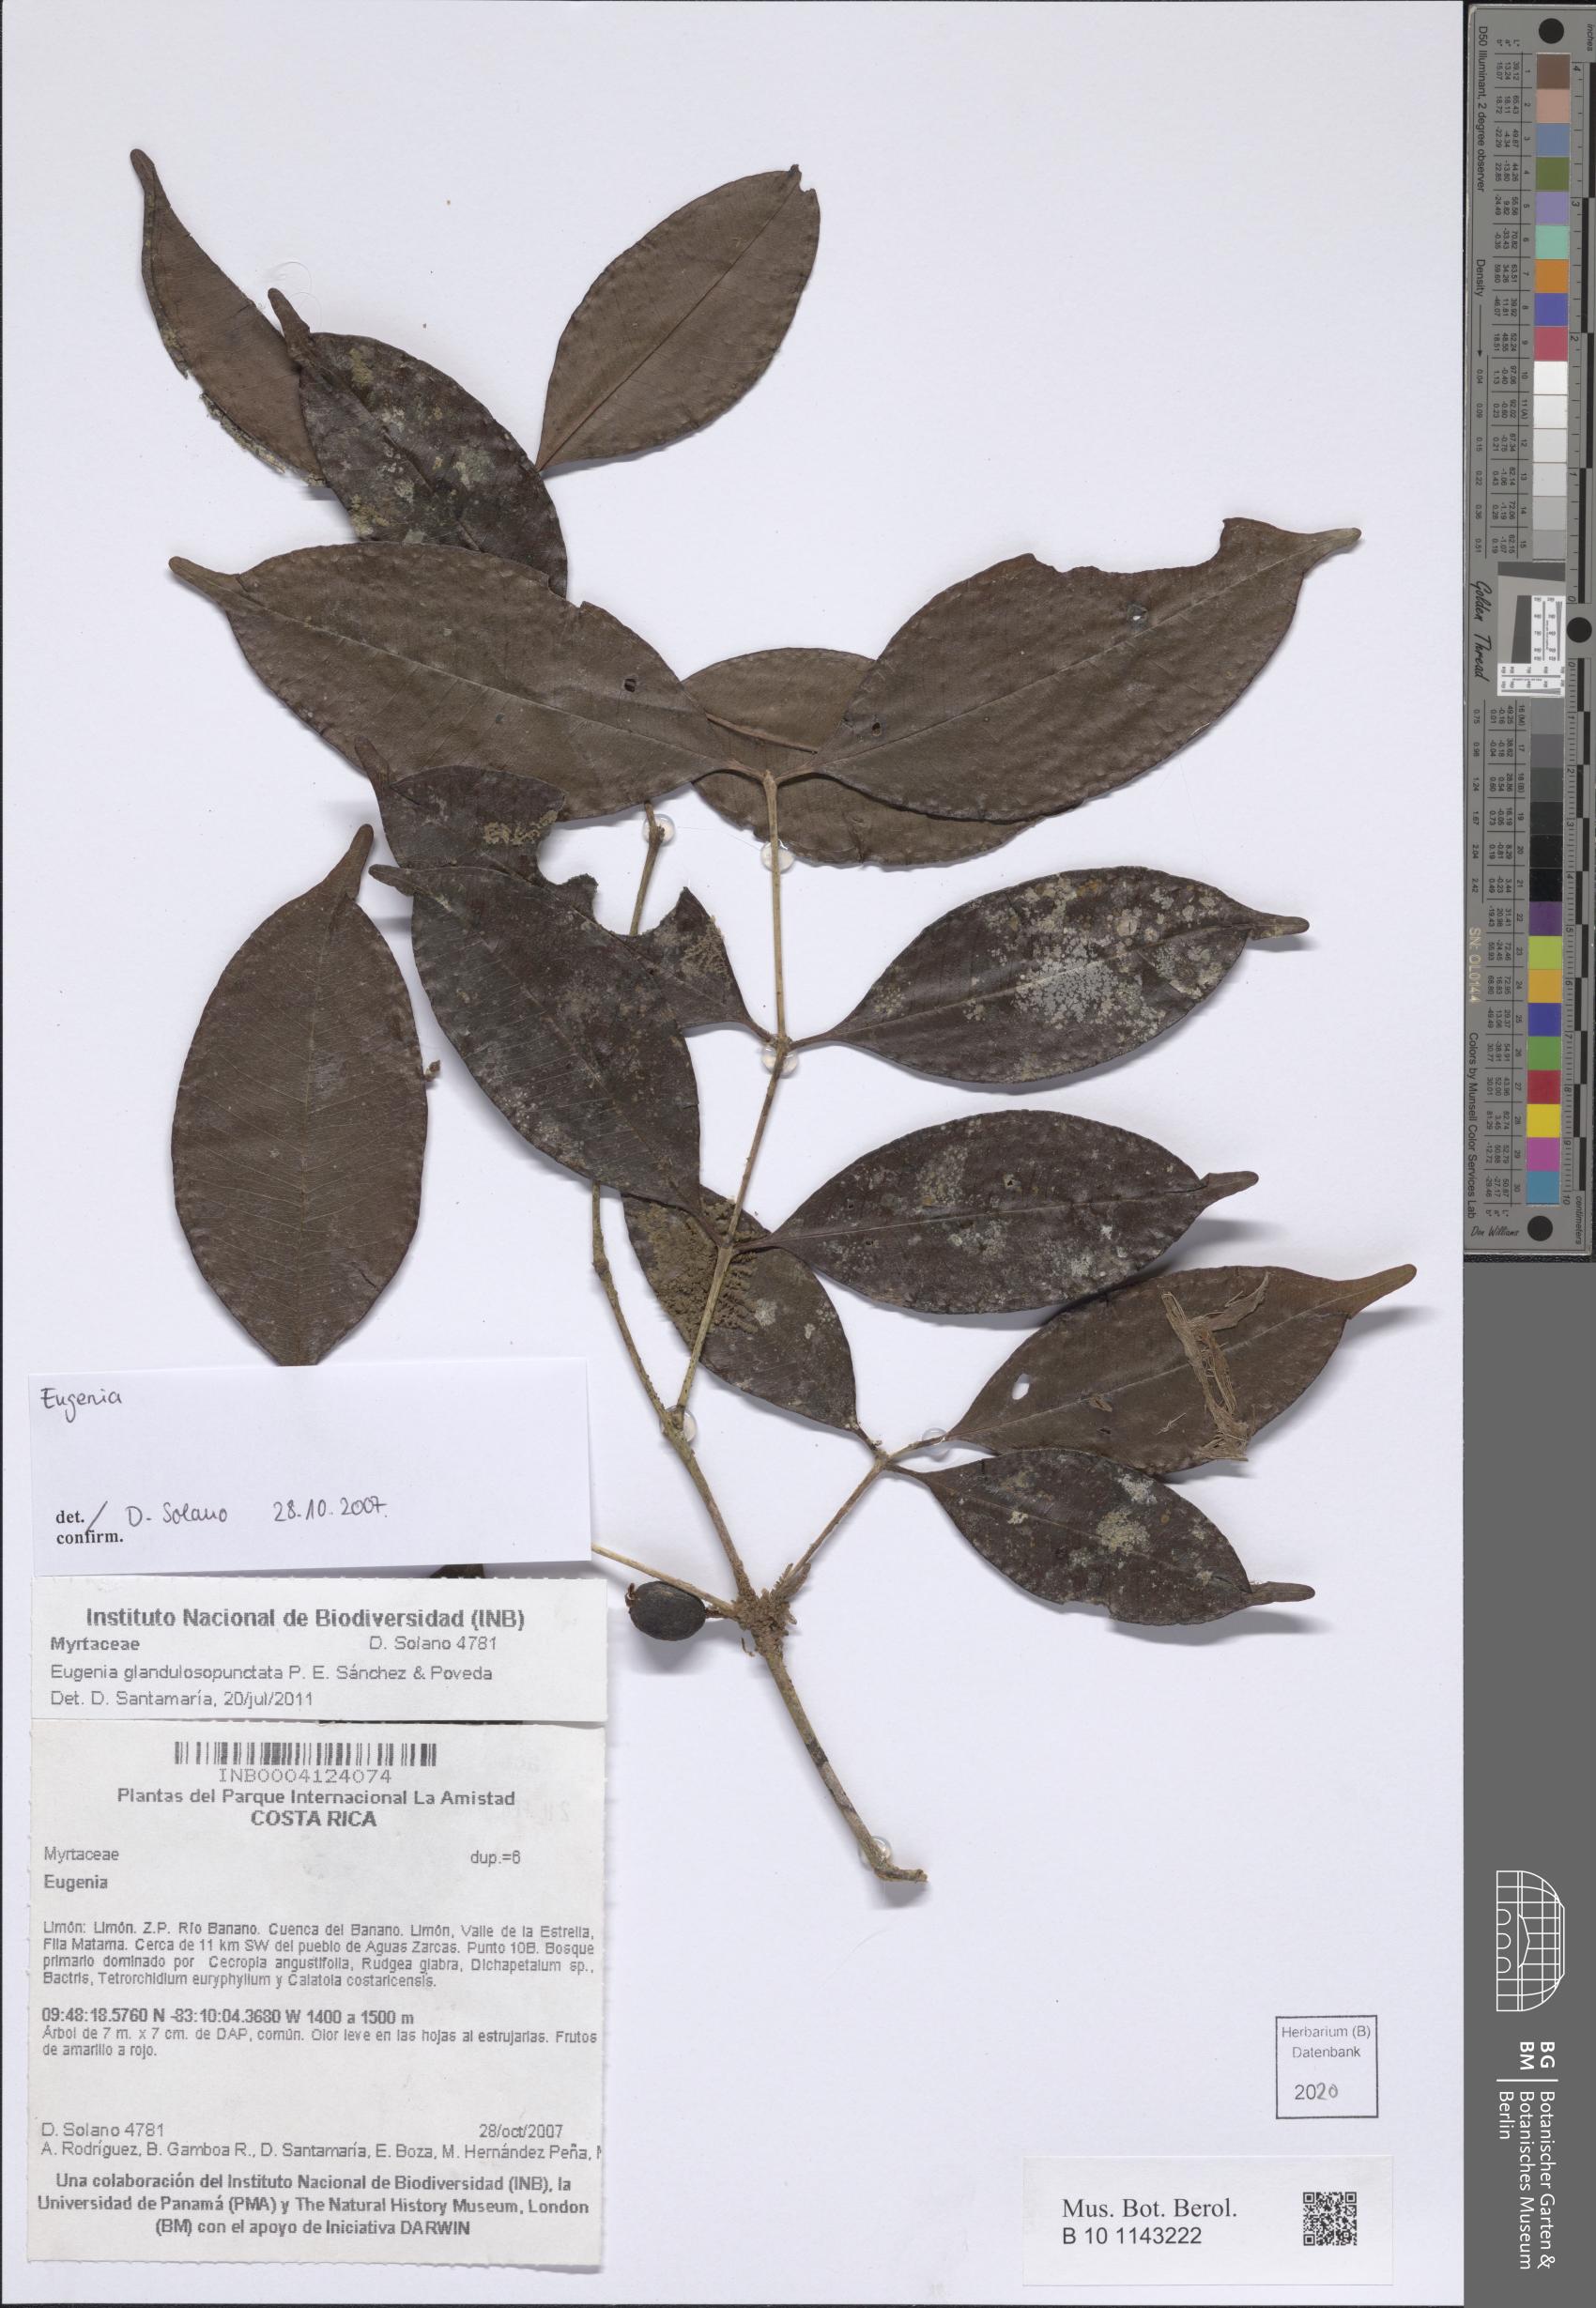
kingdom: Plantae
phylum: Tracheophyta
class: Magnoliopsida
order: Myrtales
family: Myrtaceae
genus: Eugenia
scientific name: Eugenia
